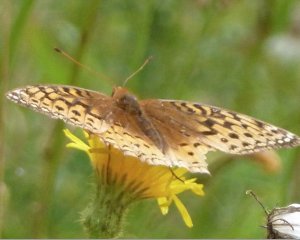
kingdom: Animalia
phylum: Arthropoda
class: Insecta
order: Lepidoptera
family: Nymphalidae
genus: Speyeria
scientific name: Speyeria cybele
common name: Great Spangled Fritillary
